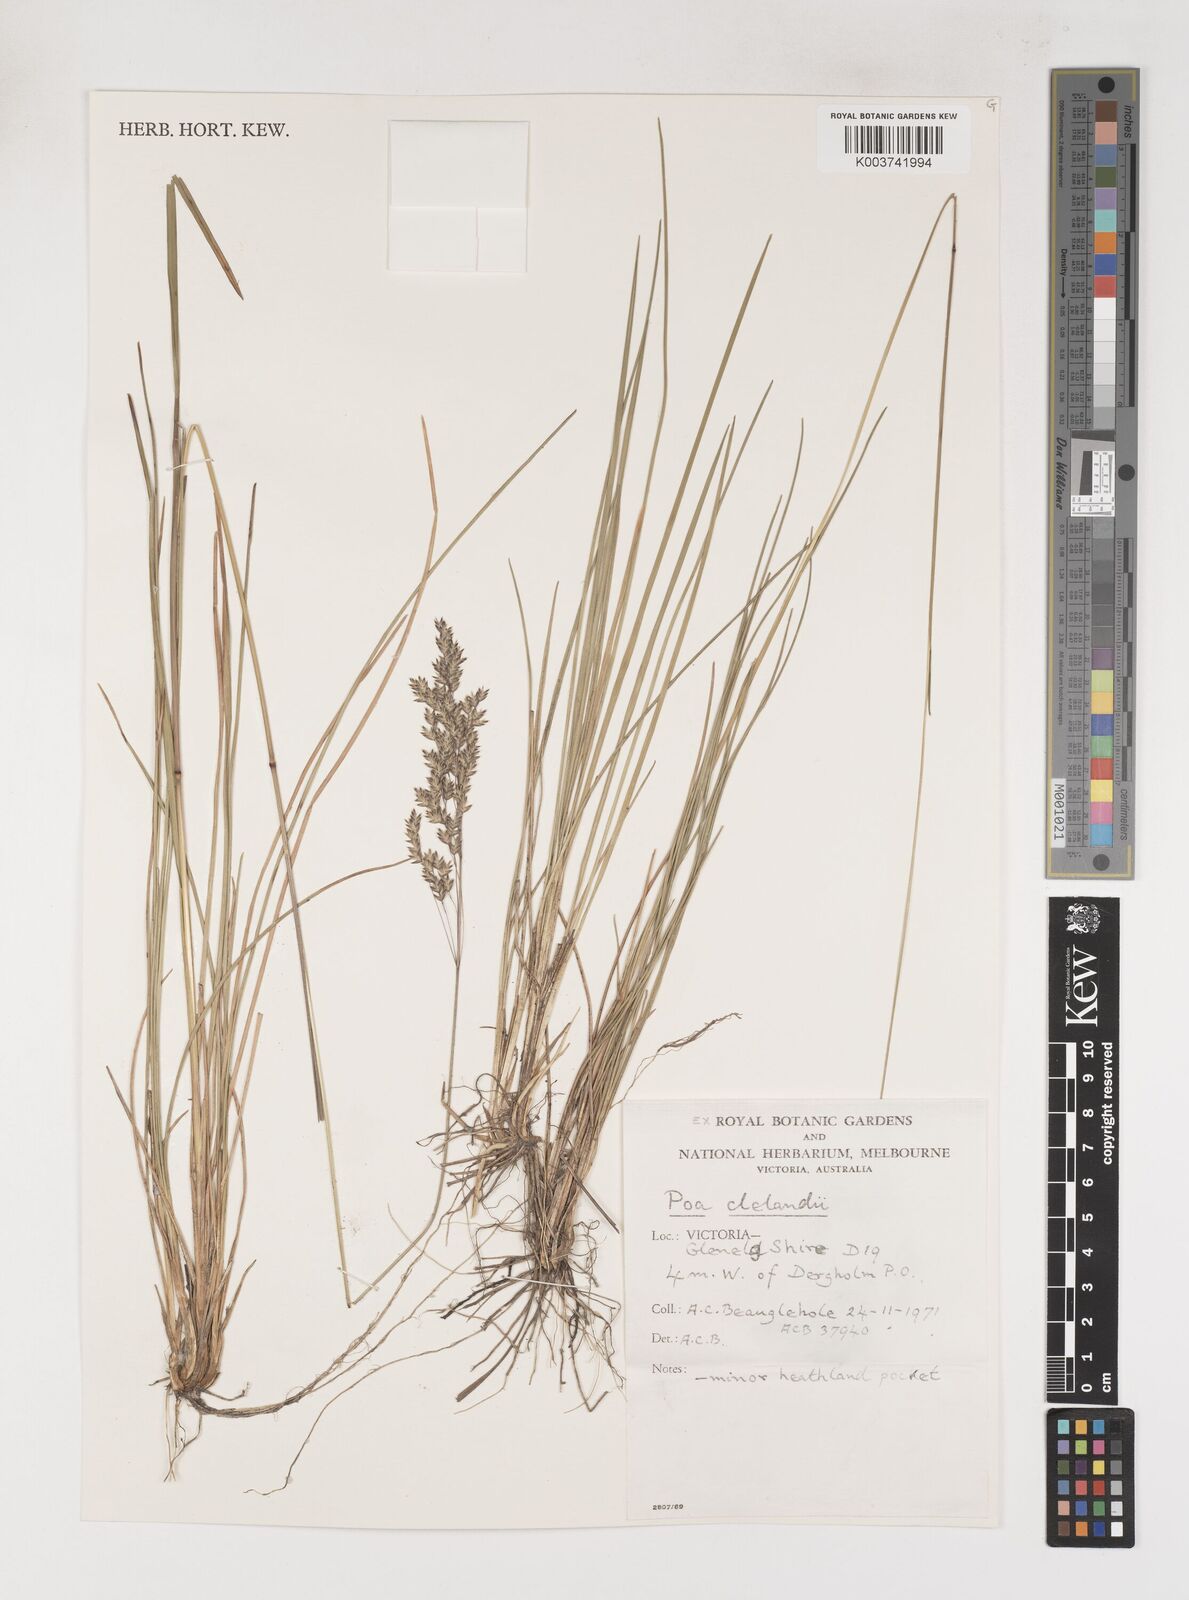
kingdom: Plantae
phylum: Tracheophyta
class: Liliopsida
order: Poales
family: Poaceae
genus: Poa
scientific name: Poa clelandii
